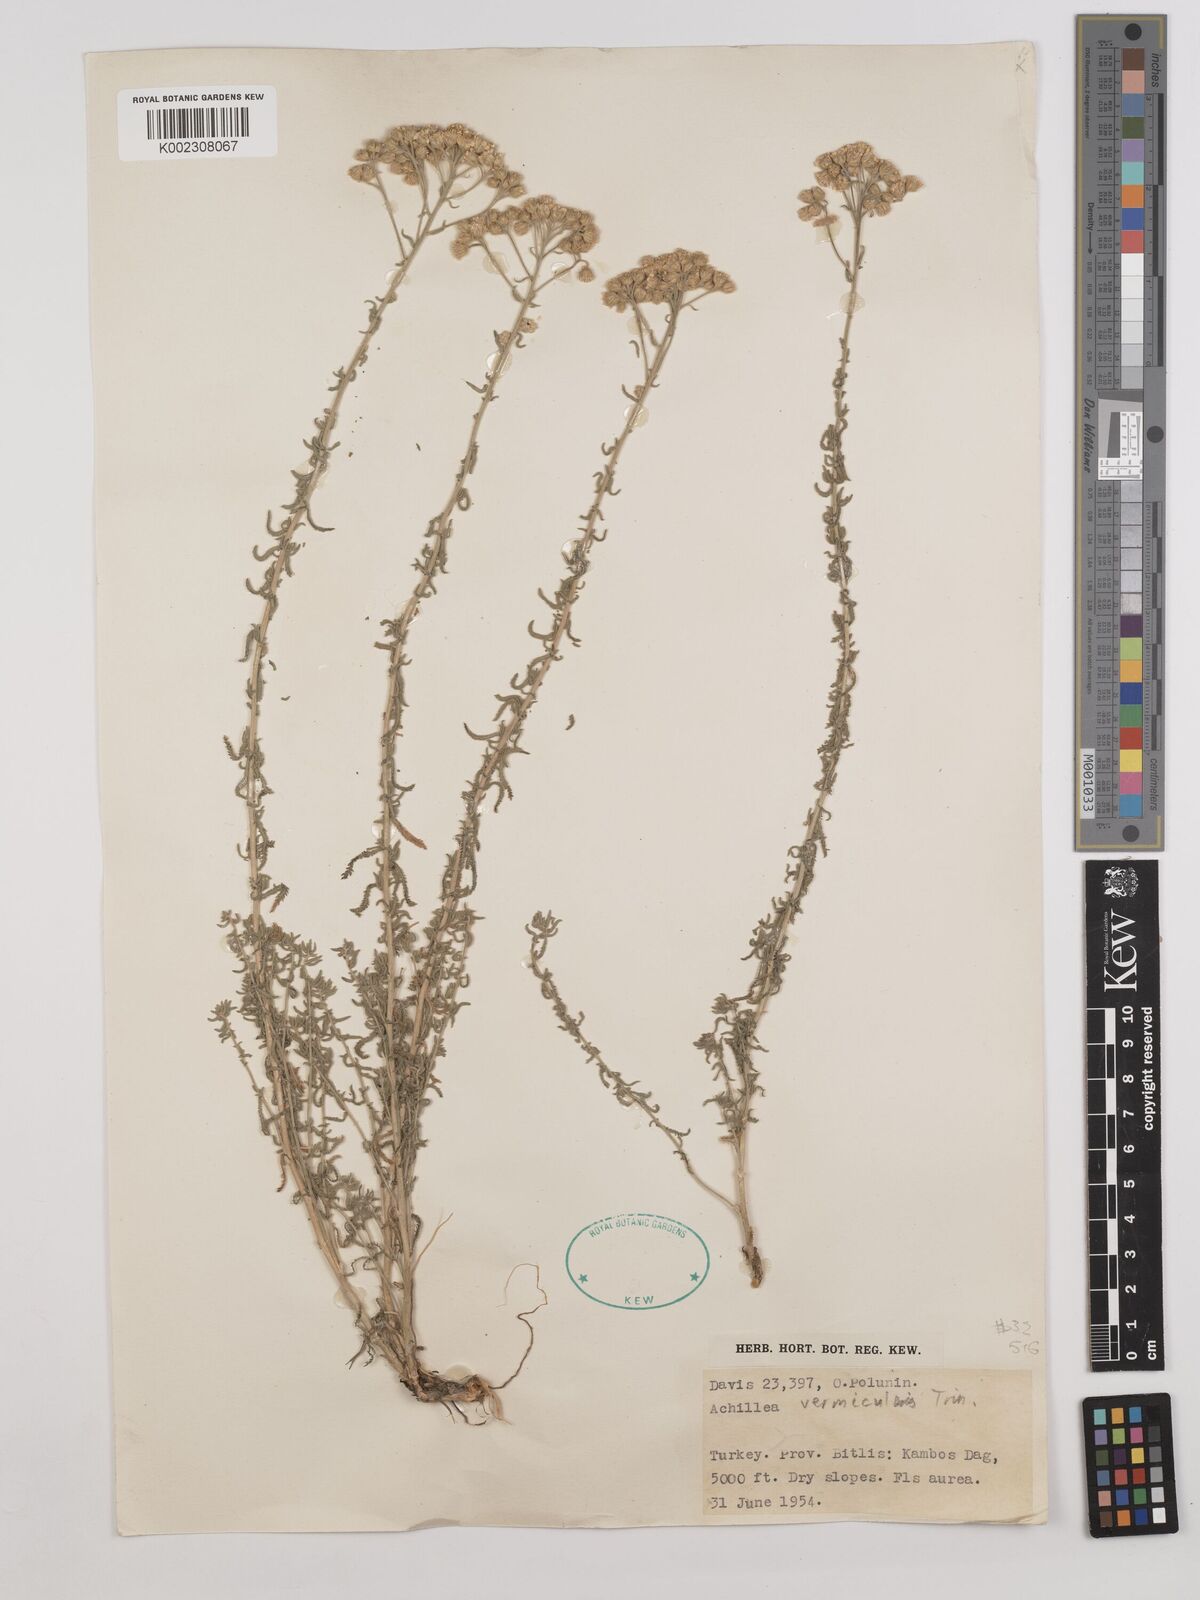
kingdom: Plantae
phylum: Tracheophyta
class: Magnoliopsida
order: Asterales
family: Asteraceae
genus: Achillea
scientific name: Achillea vermicularis
